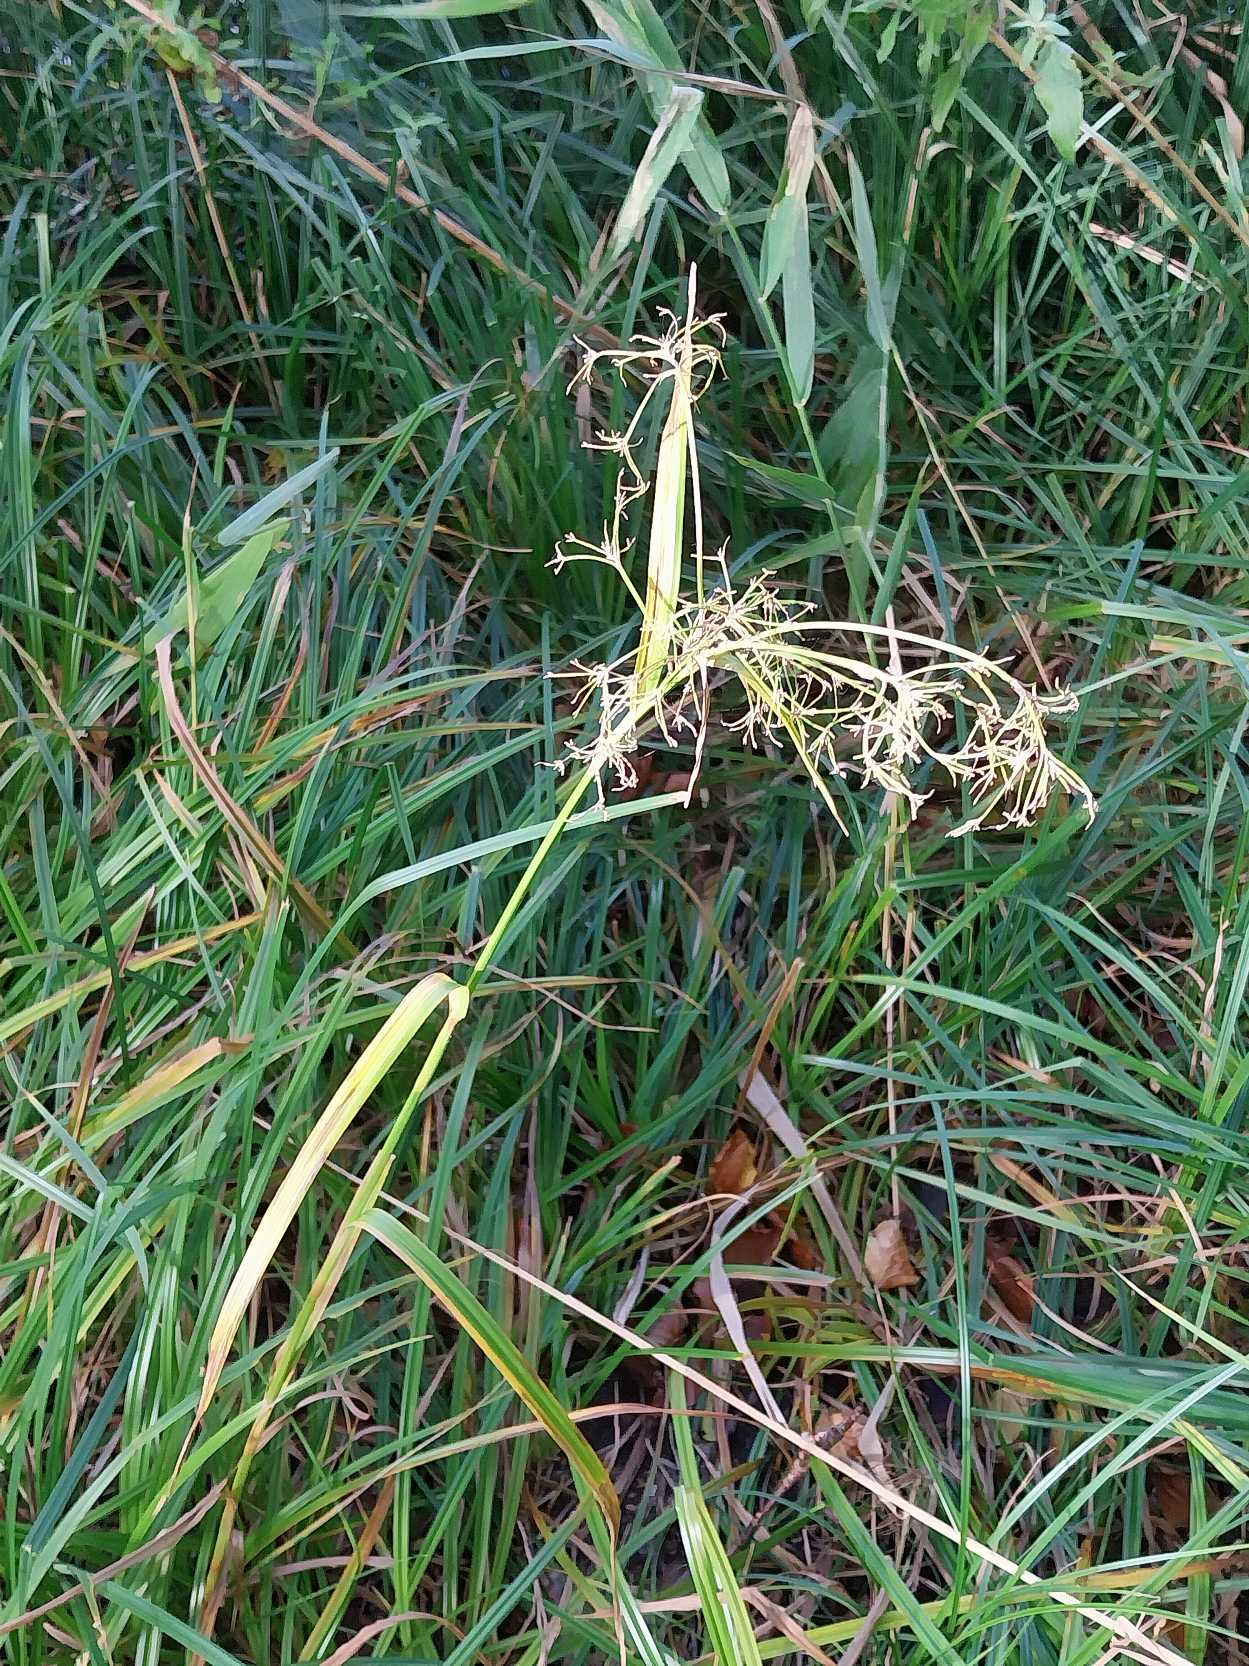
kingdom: Plantae
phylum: Tracheophyta
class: Liliopsida
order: Poales
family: Cyperaceae
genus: Scirpus
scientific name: Scirpus sylvaticus
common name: Skov-kogleaks
